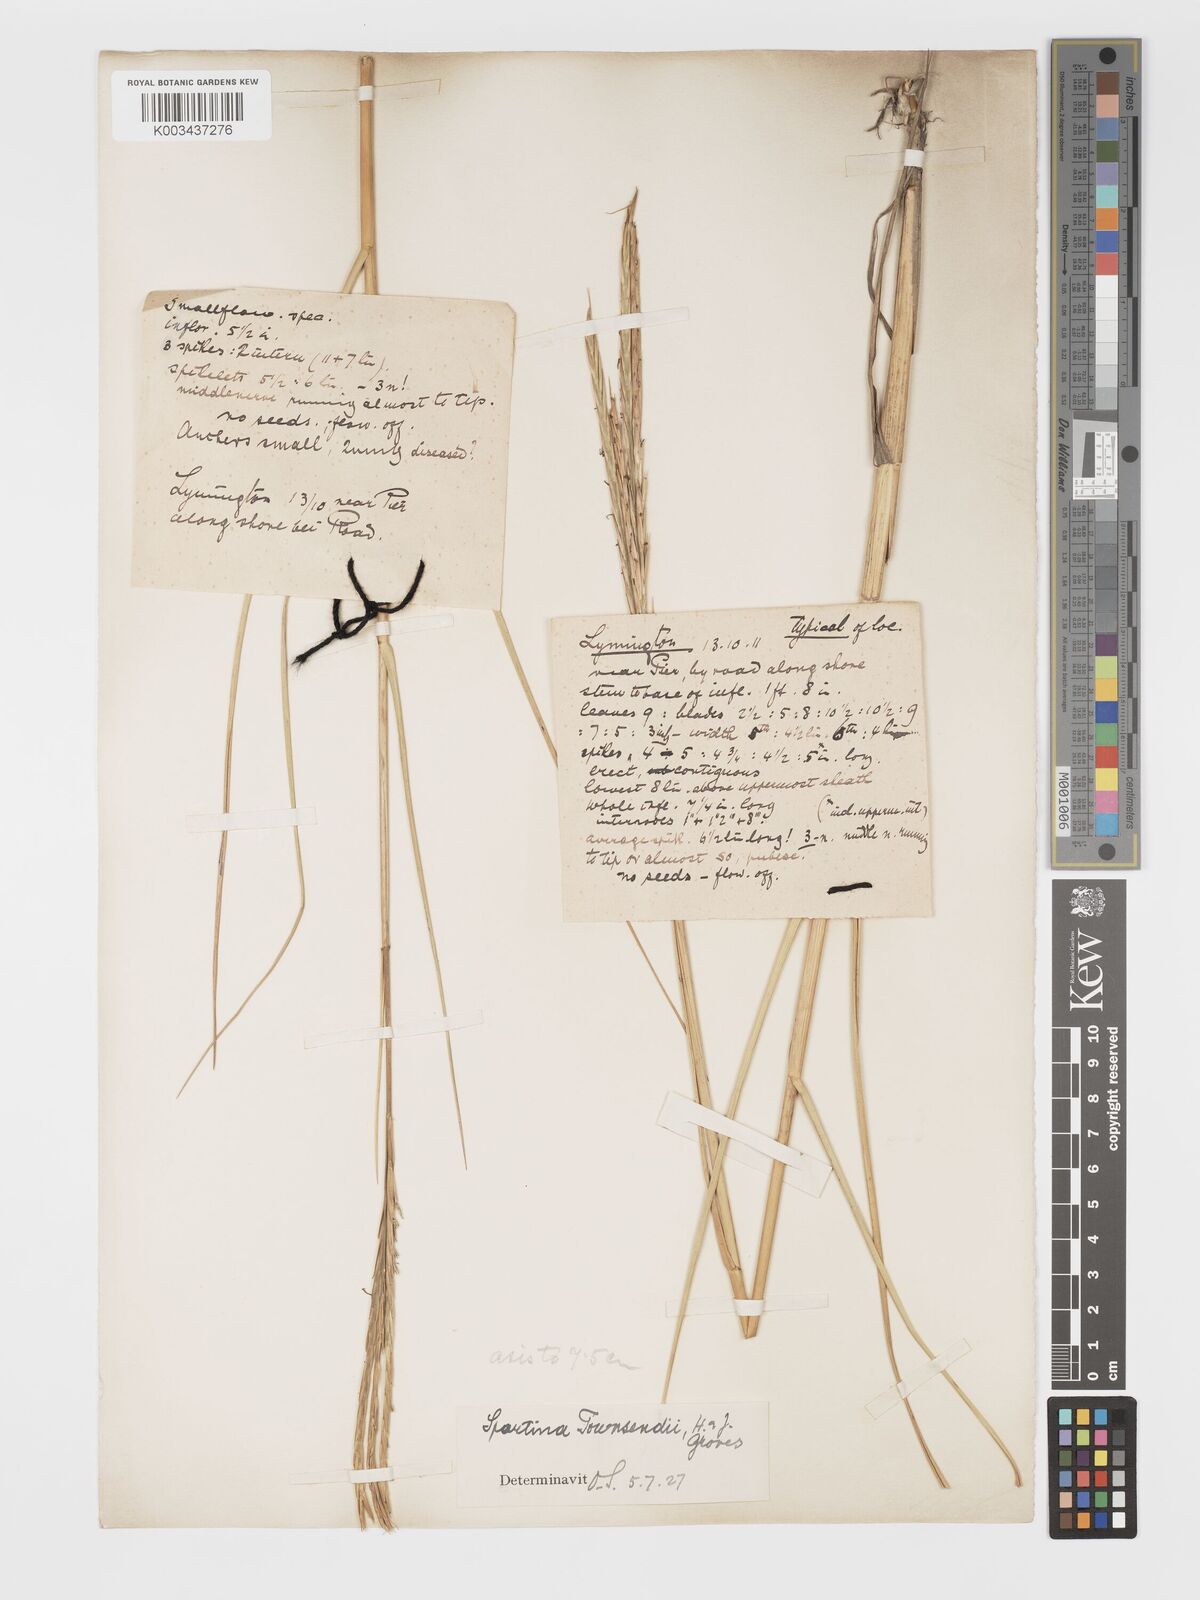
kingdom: Plantae
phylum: Tracheophyta
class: Liliopsida
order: Poales
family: Poaceae
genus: Sporobolus
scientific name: Sporobolus townsendii
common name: Townsend's cordgrass
